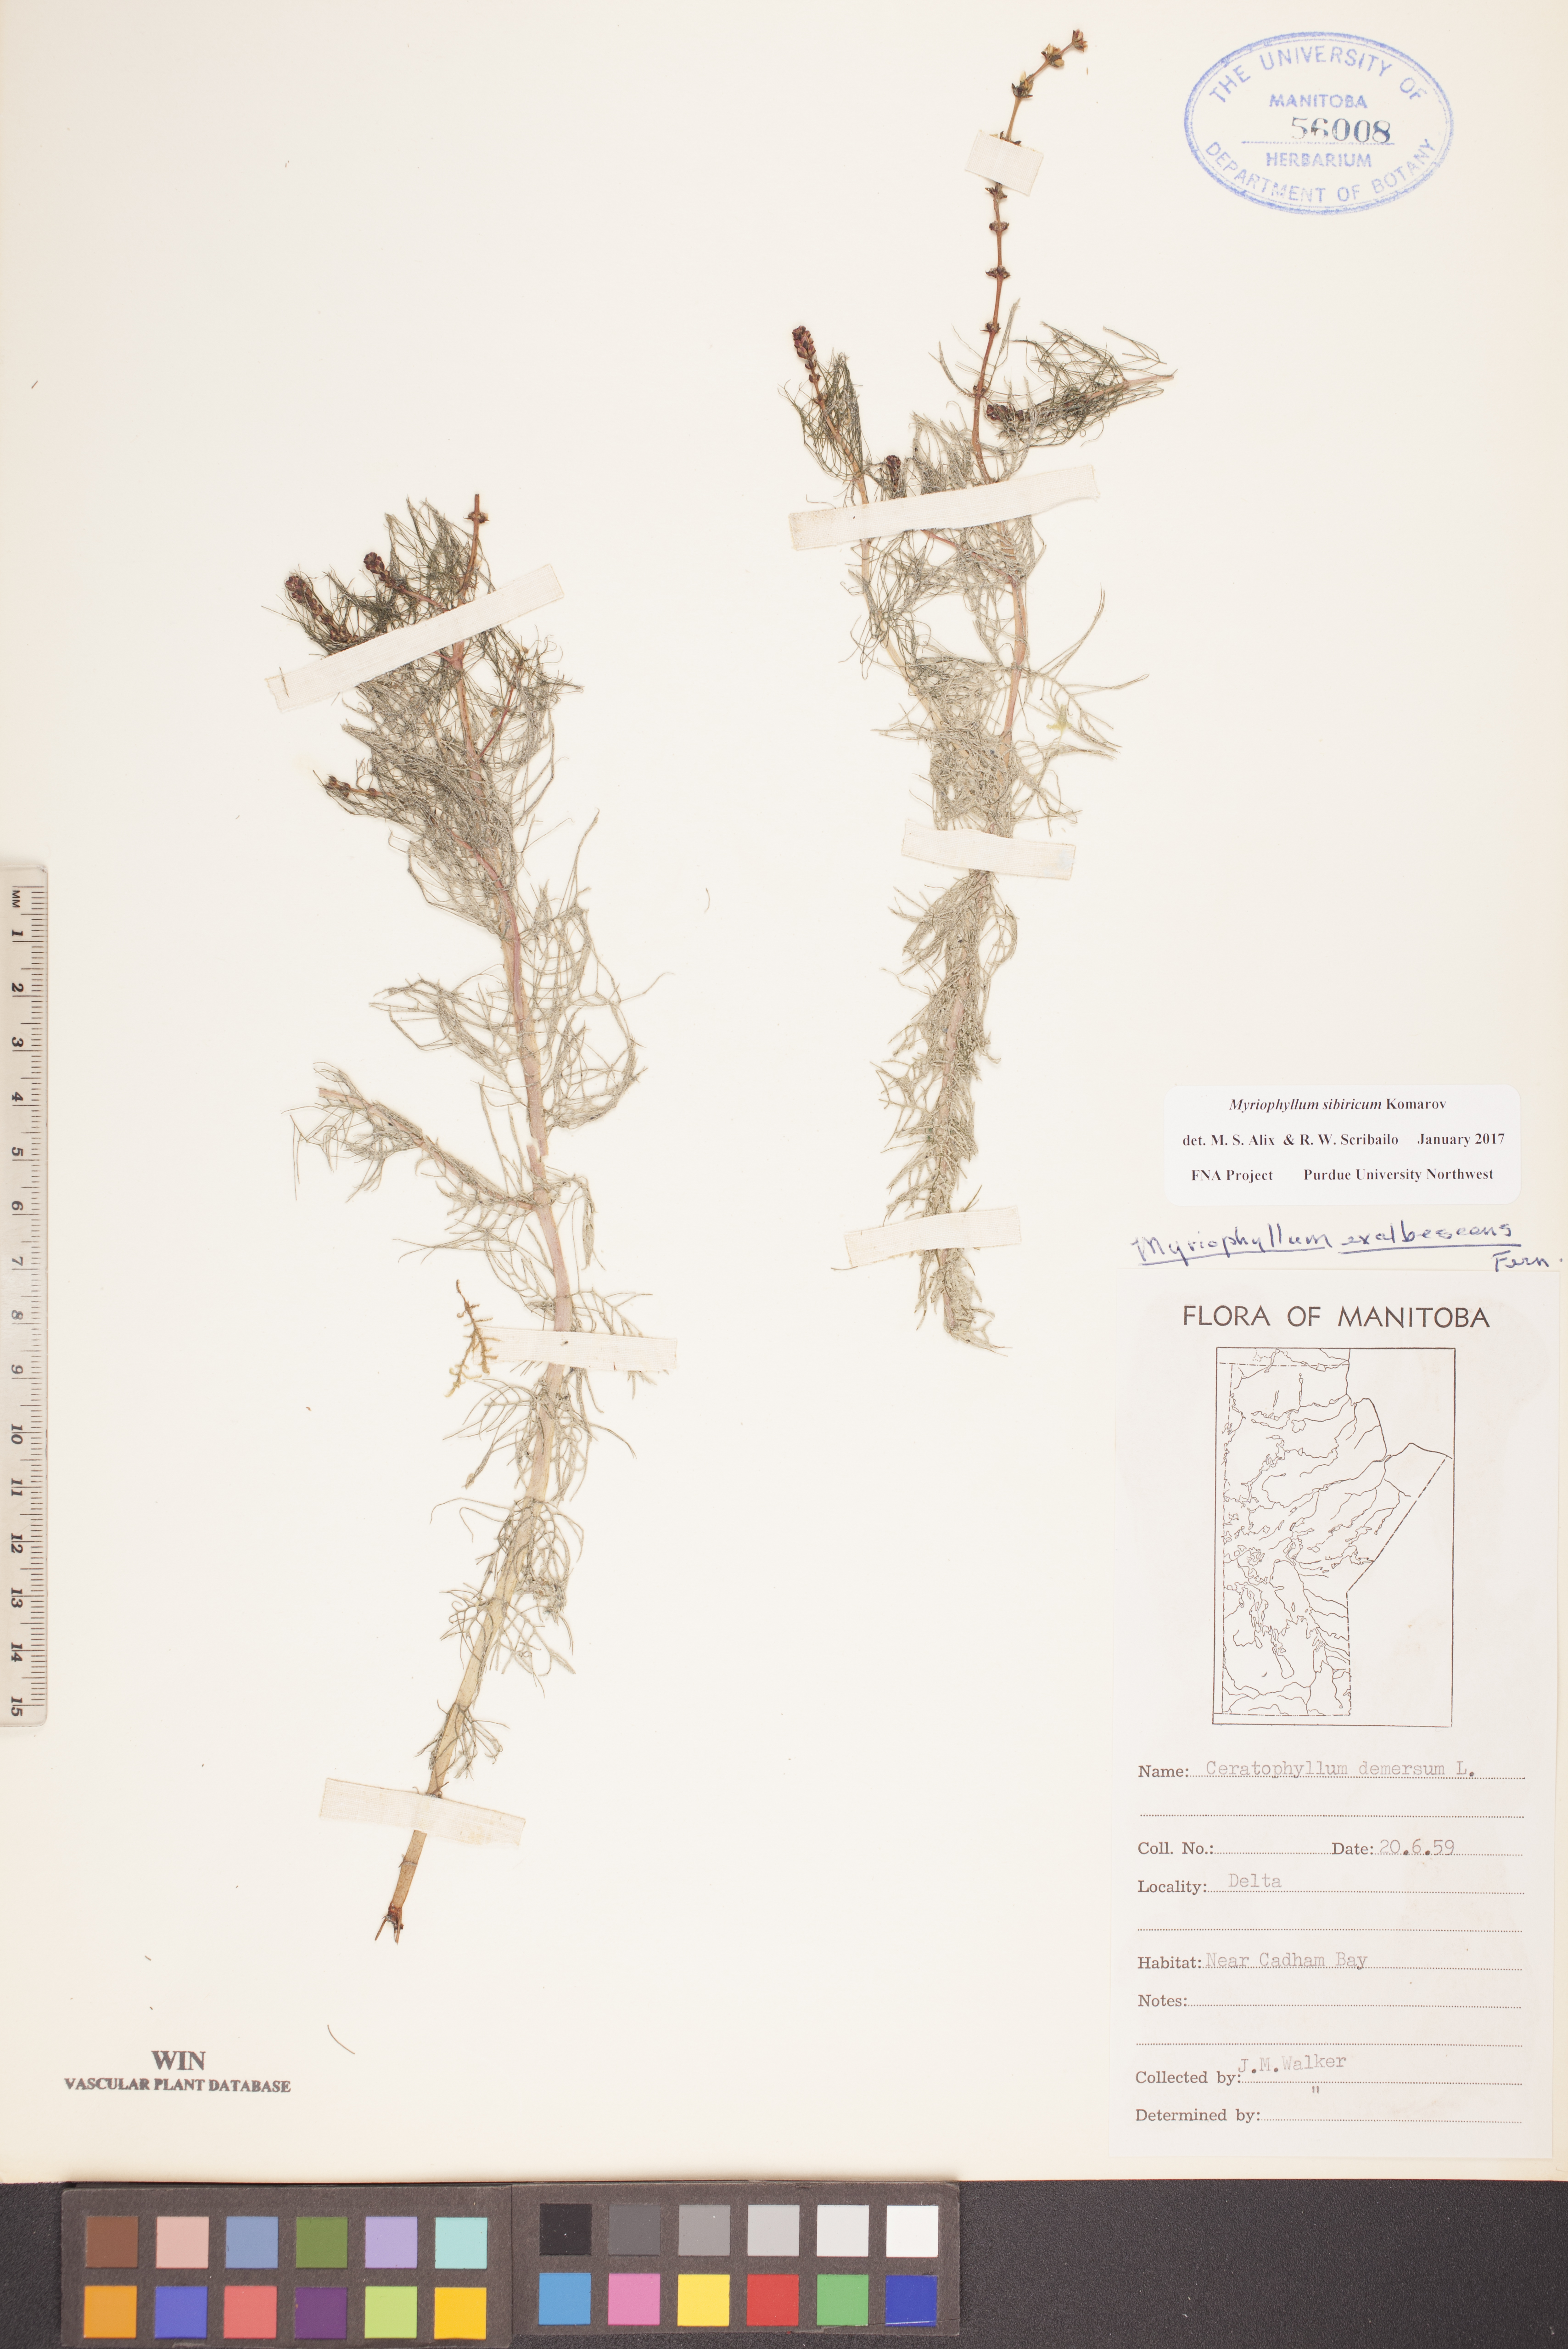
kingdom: Plantae
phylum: Tracheophyta
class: Magnoliopsida
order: Saxifragales
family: Haloragaceae
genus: Myriophyllum
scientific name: Myriophyllum sibiricum
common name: Siberian water-milfoil
